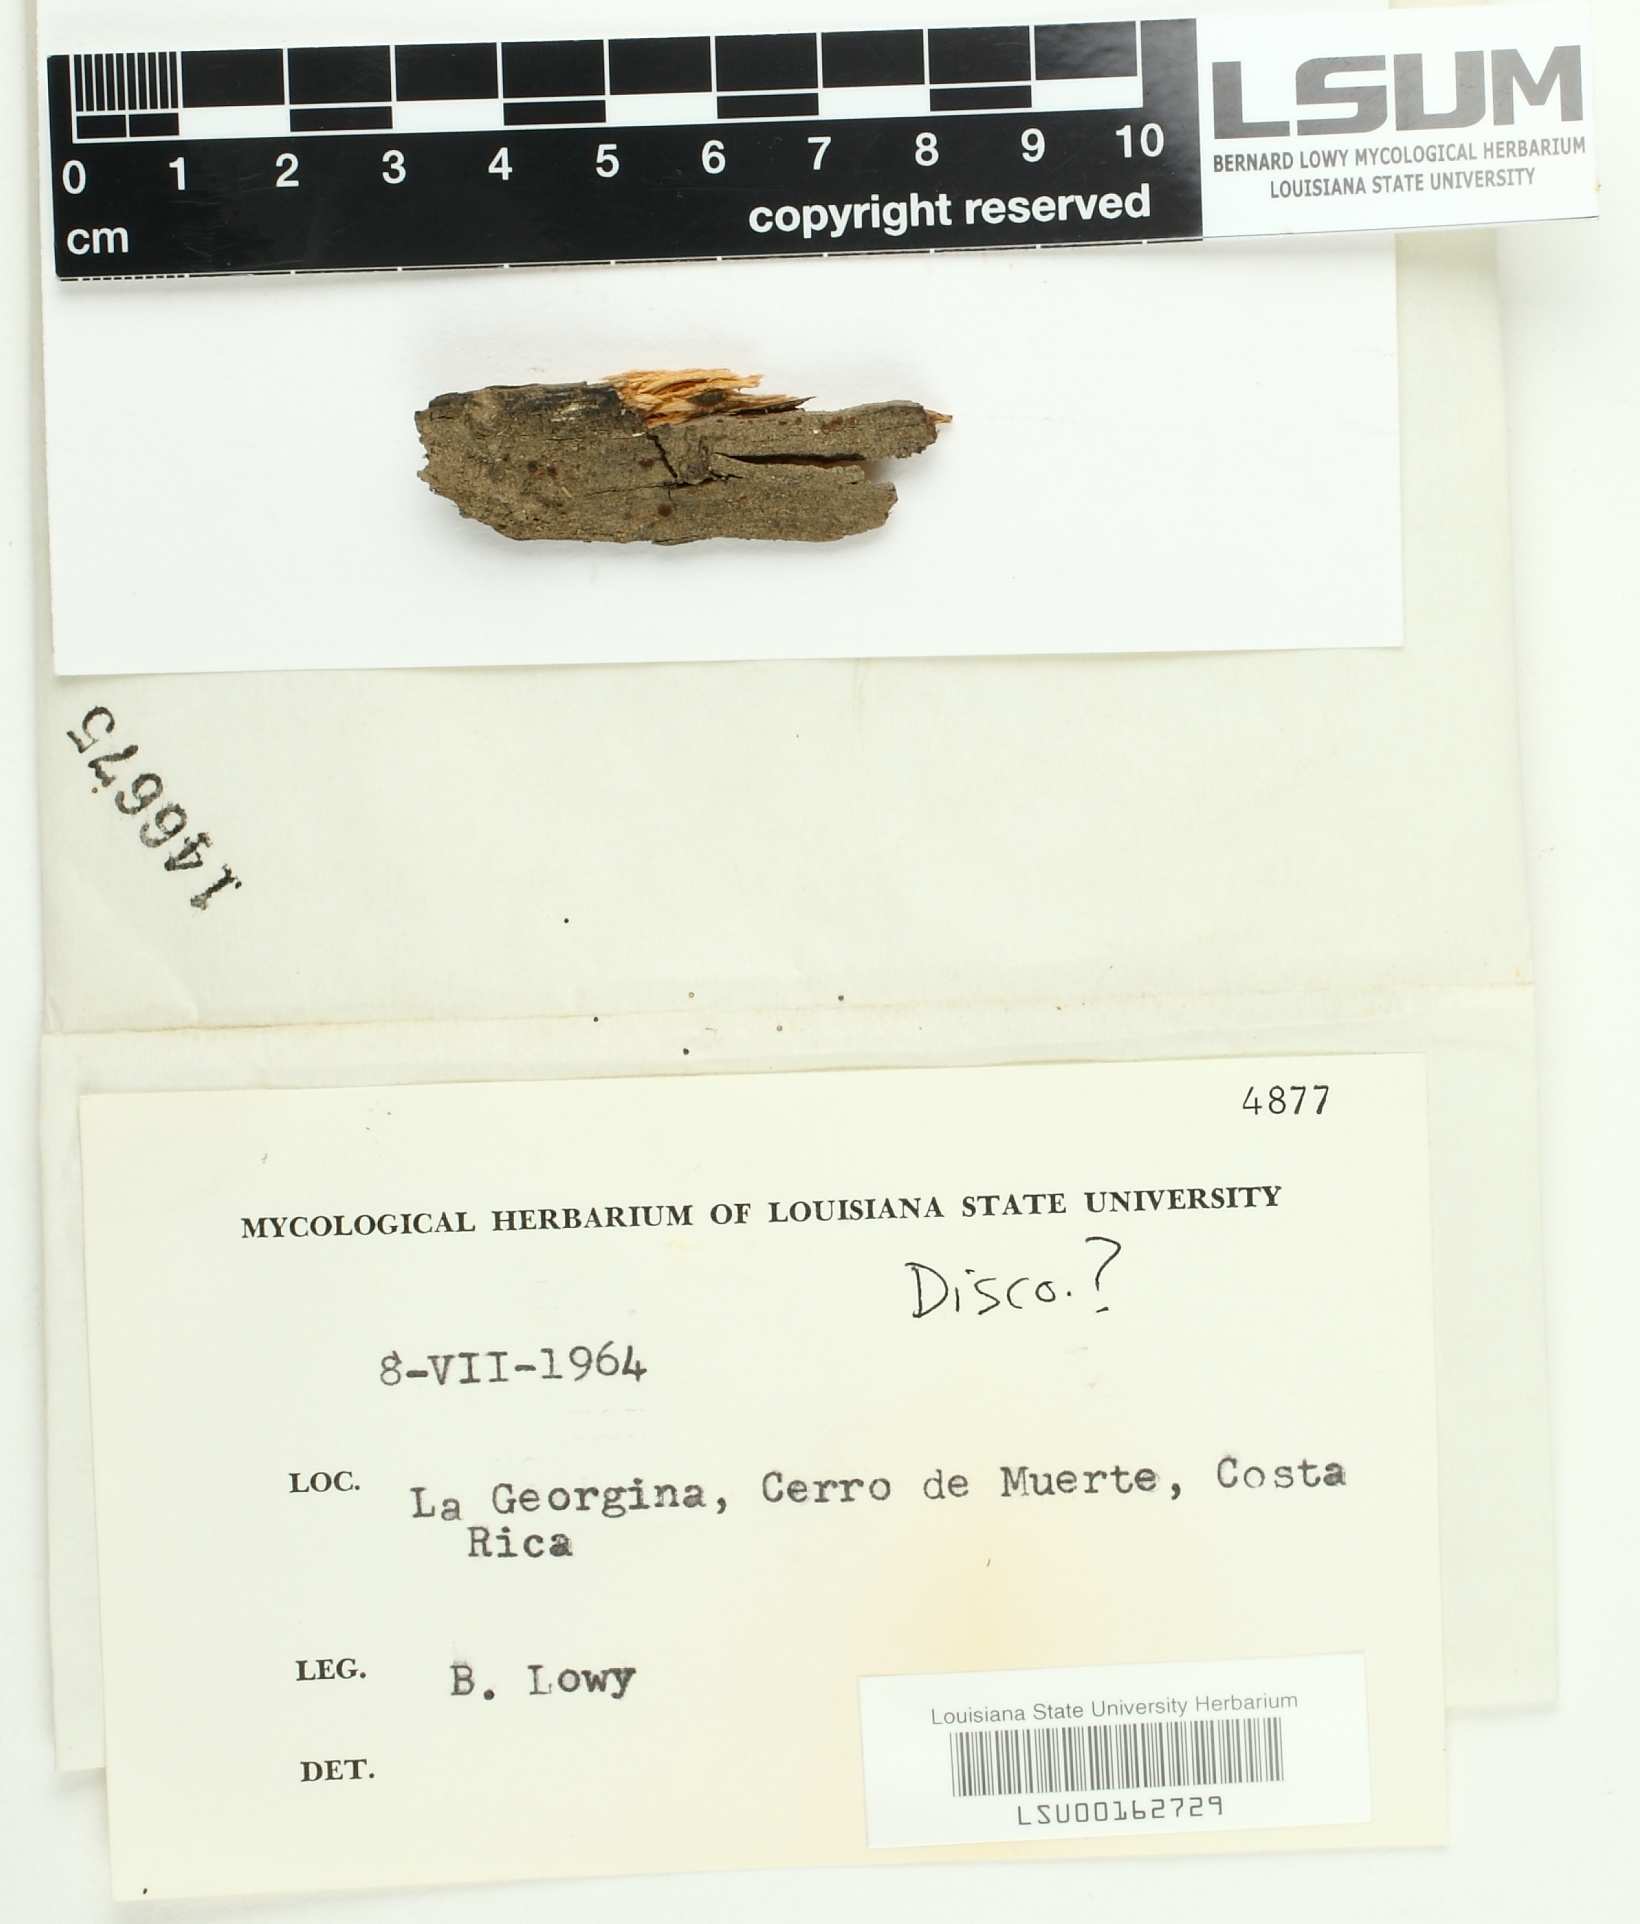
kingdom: Fungi
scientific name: Fungi
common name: Fungi
